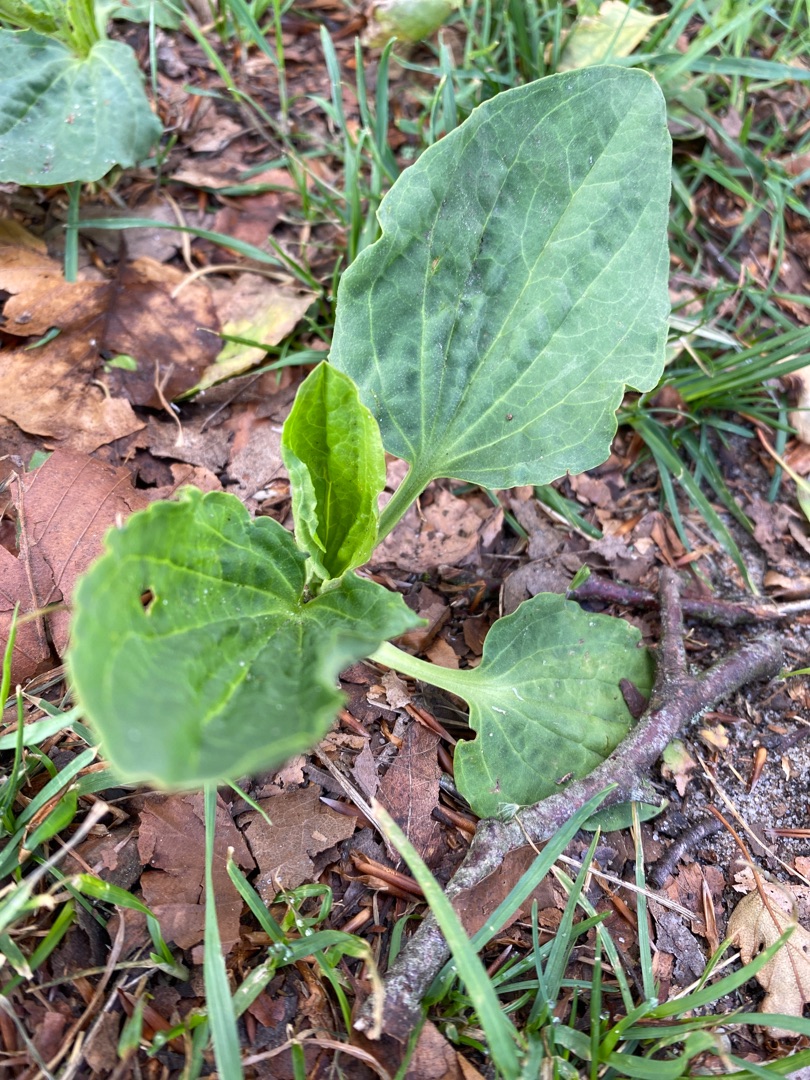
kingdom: Plantae
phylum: Tracheophyta
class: Magnoliopsida
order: Lamiales
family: Plantaginaceae
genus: Plantago
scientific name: Plantago major
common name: Glat vejbred
